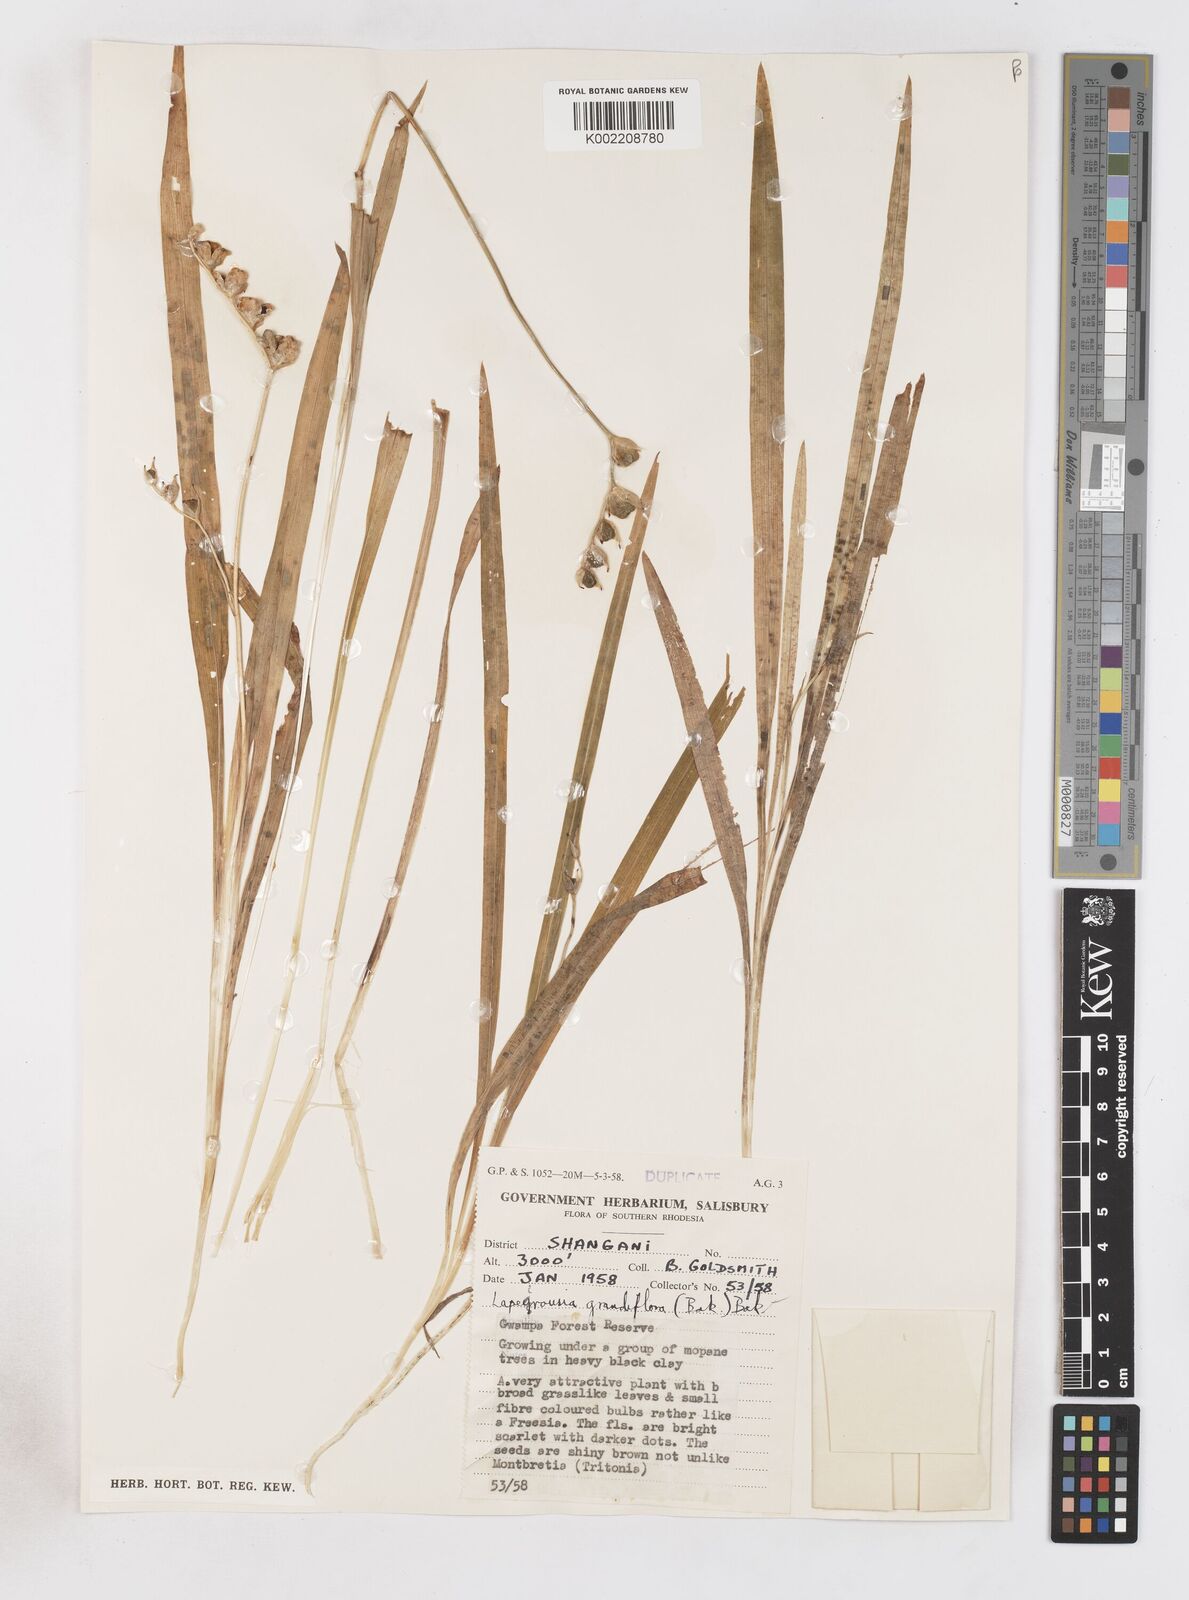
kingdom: Plantae
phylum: Tracheophyta
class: Liliopsida
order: Asparagales
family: Iridaceae
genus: Freesia
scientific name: Freesia grandiflora
